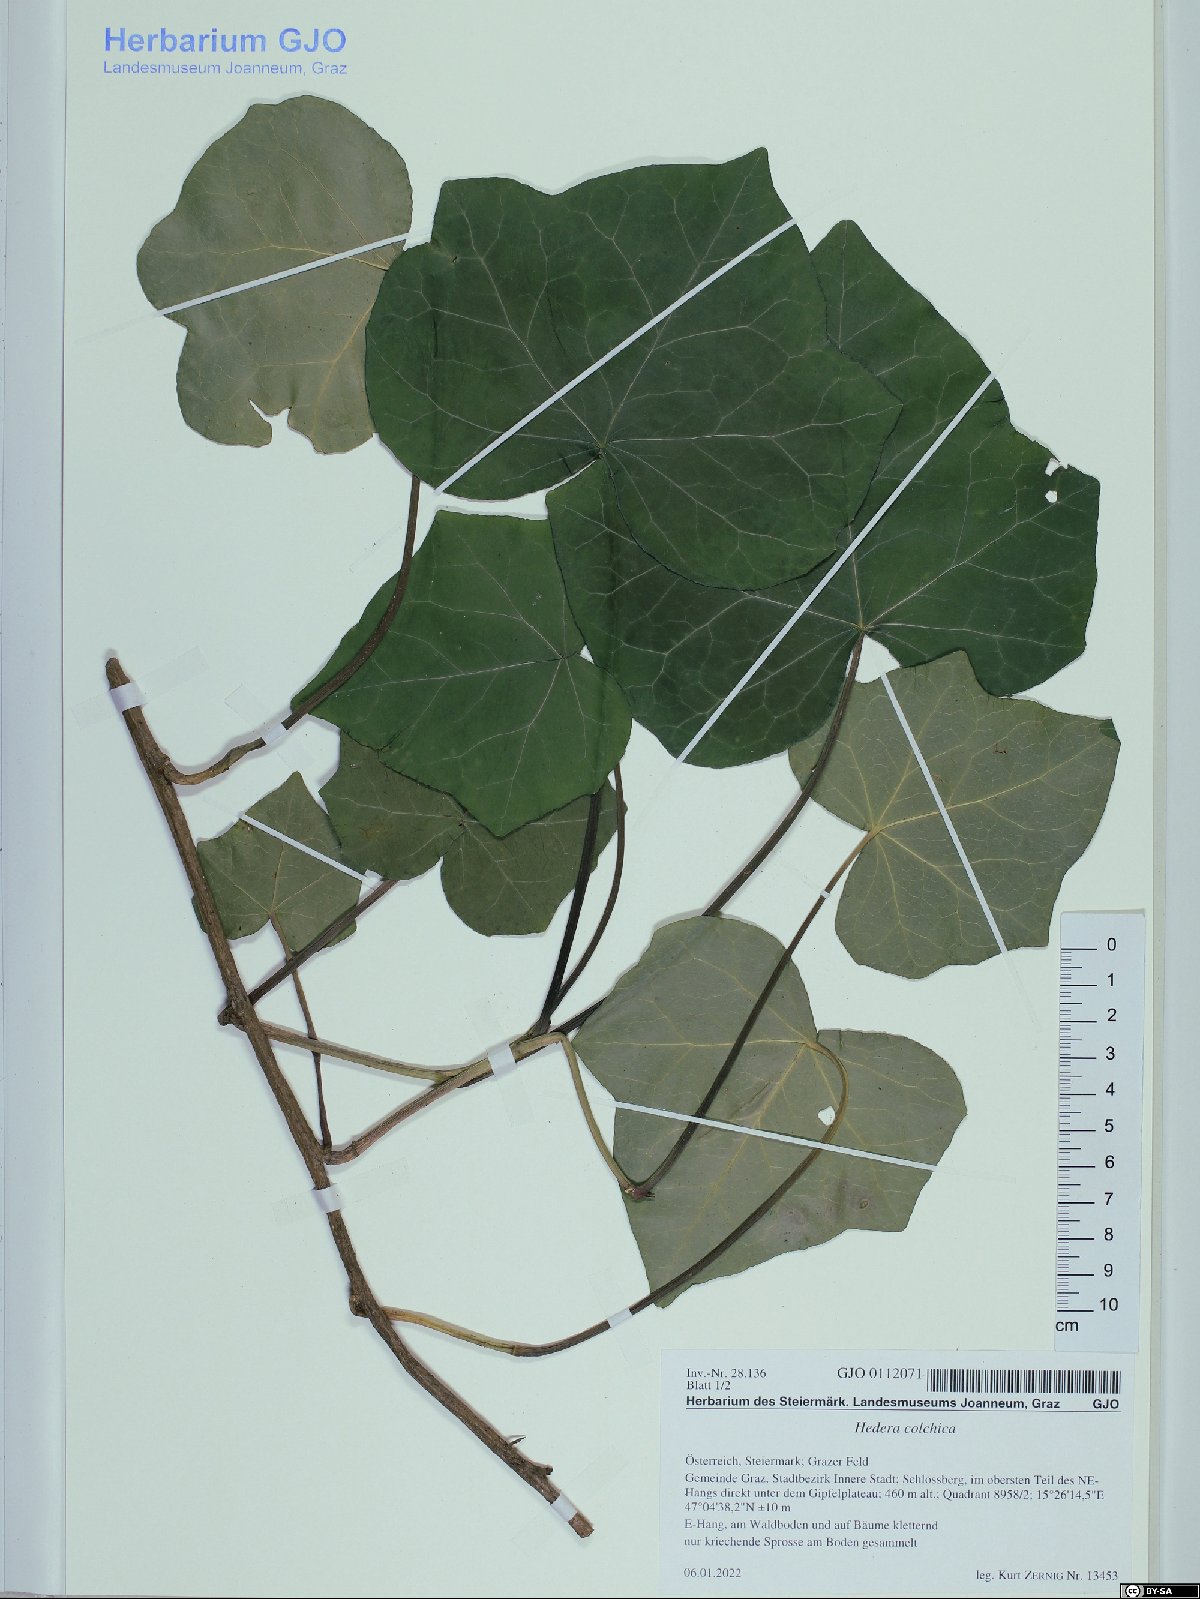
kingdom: Plantae
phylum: Tracheophyta
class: Magnoliopsida
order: Apiales
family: Araliaceae
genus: Hedera
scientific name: Hedera colchica
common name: Persian ivy
